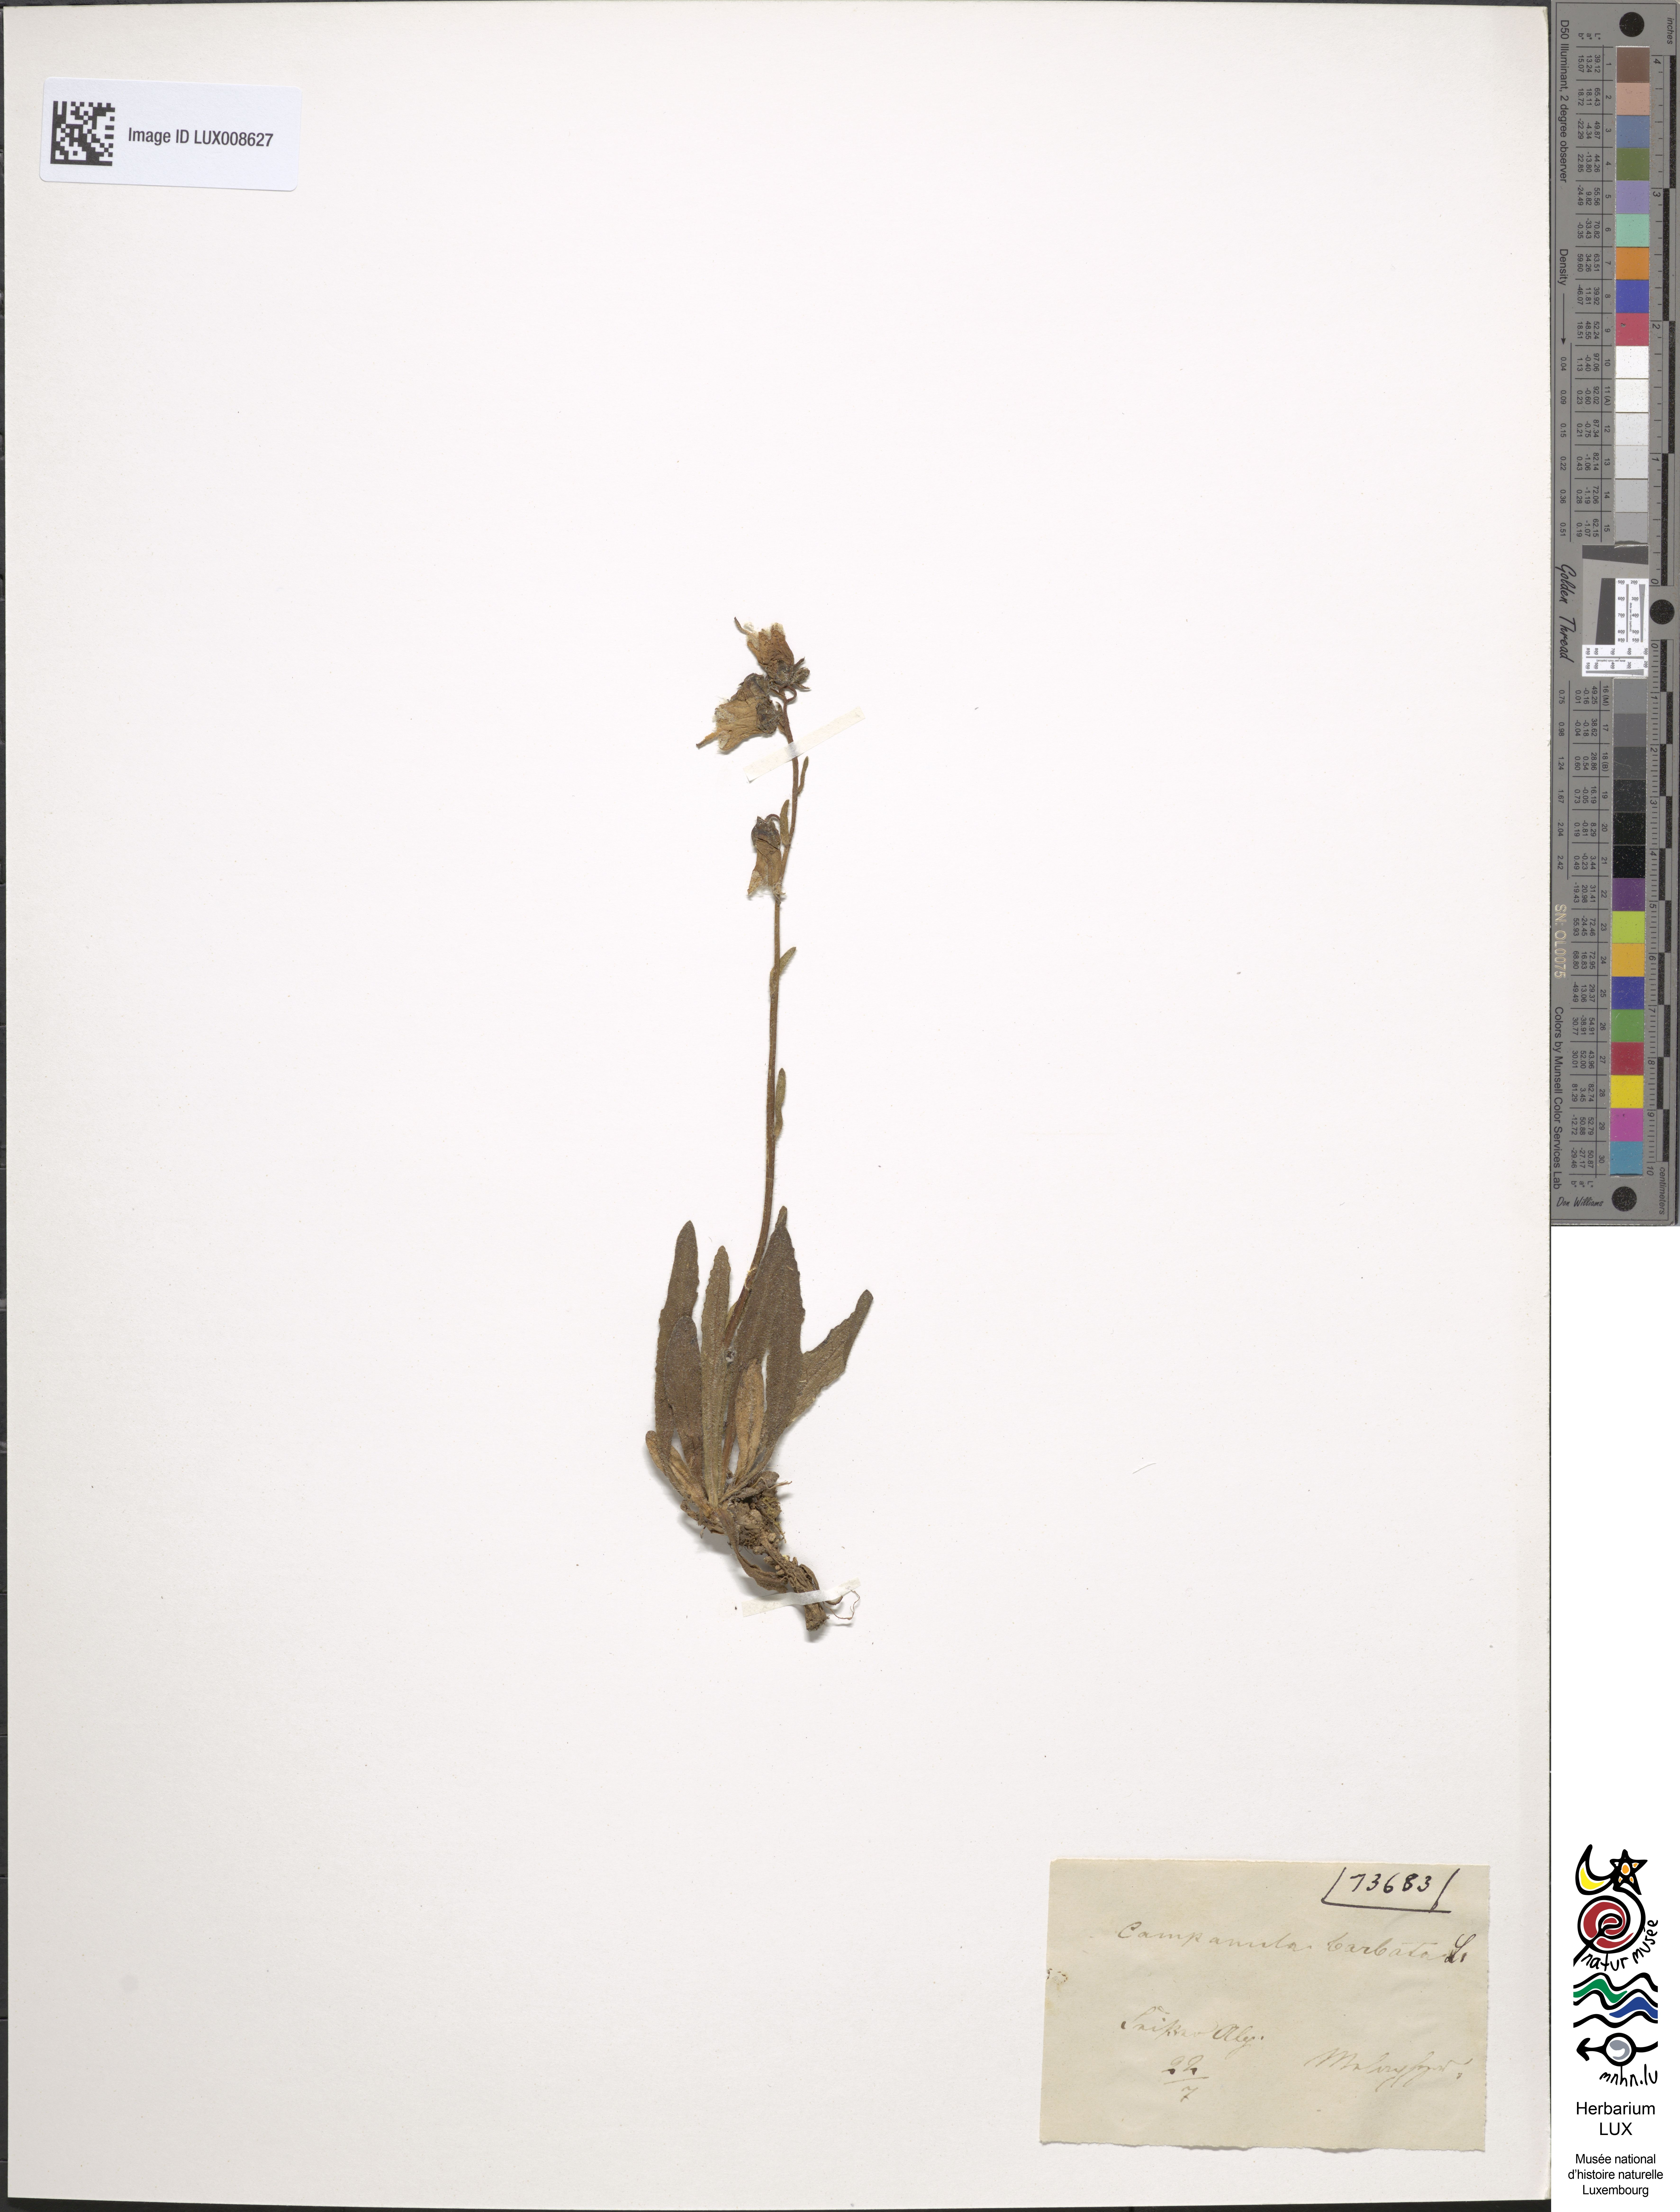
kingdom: Plantae
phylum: Tracheophyta
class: Magnoliopsida
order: Asterales
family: Campanulaceae
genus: Campanula
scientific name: Campanula barbata
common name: Bearded bellflower
